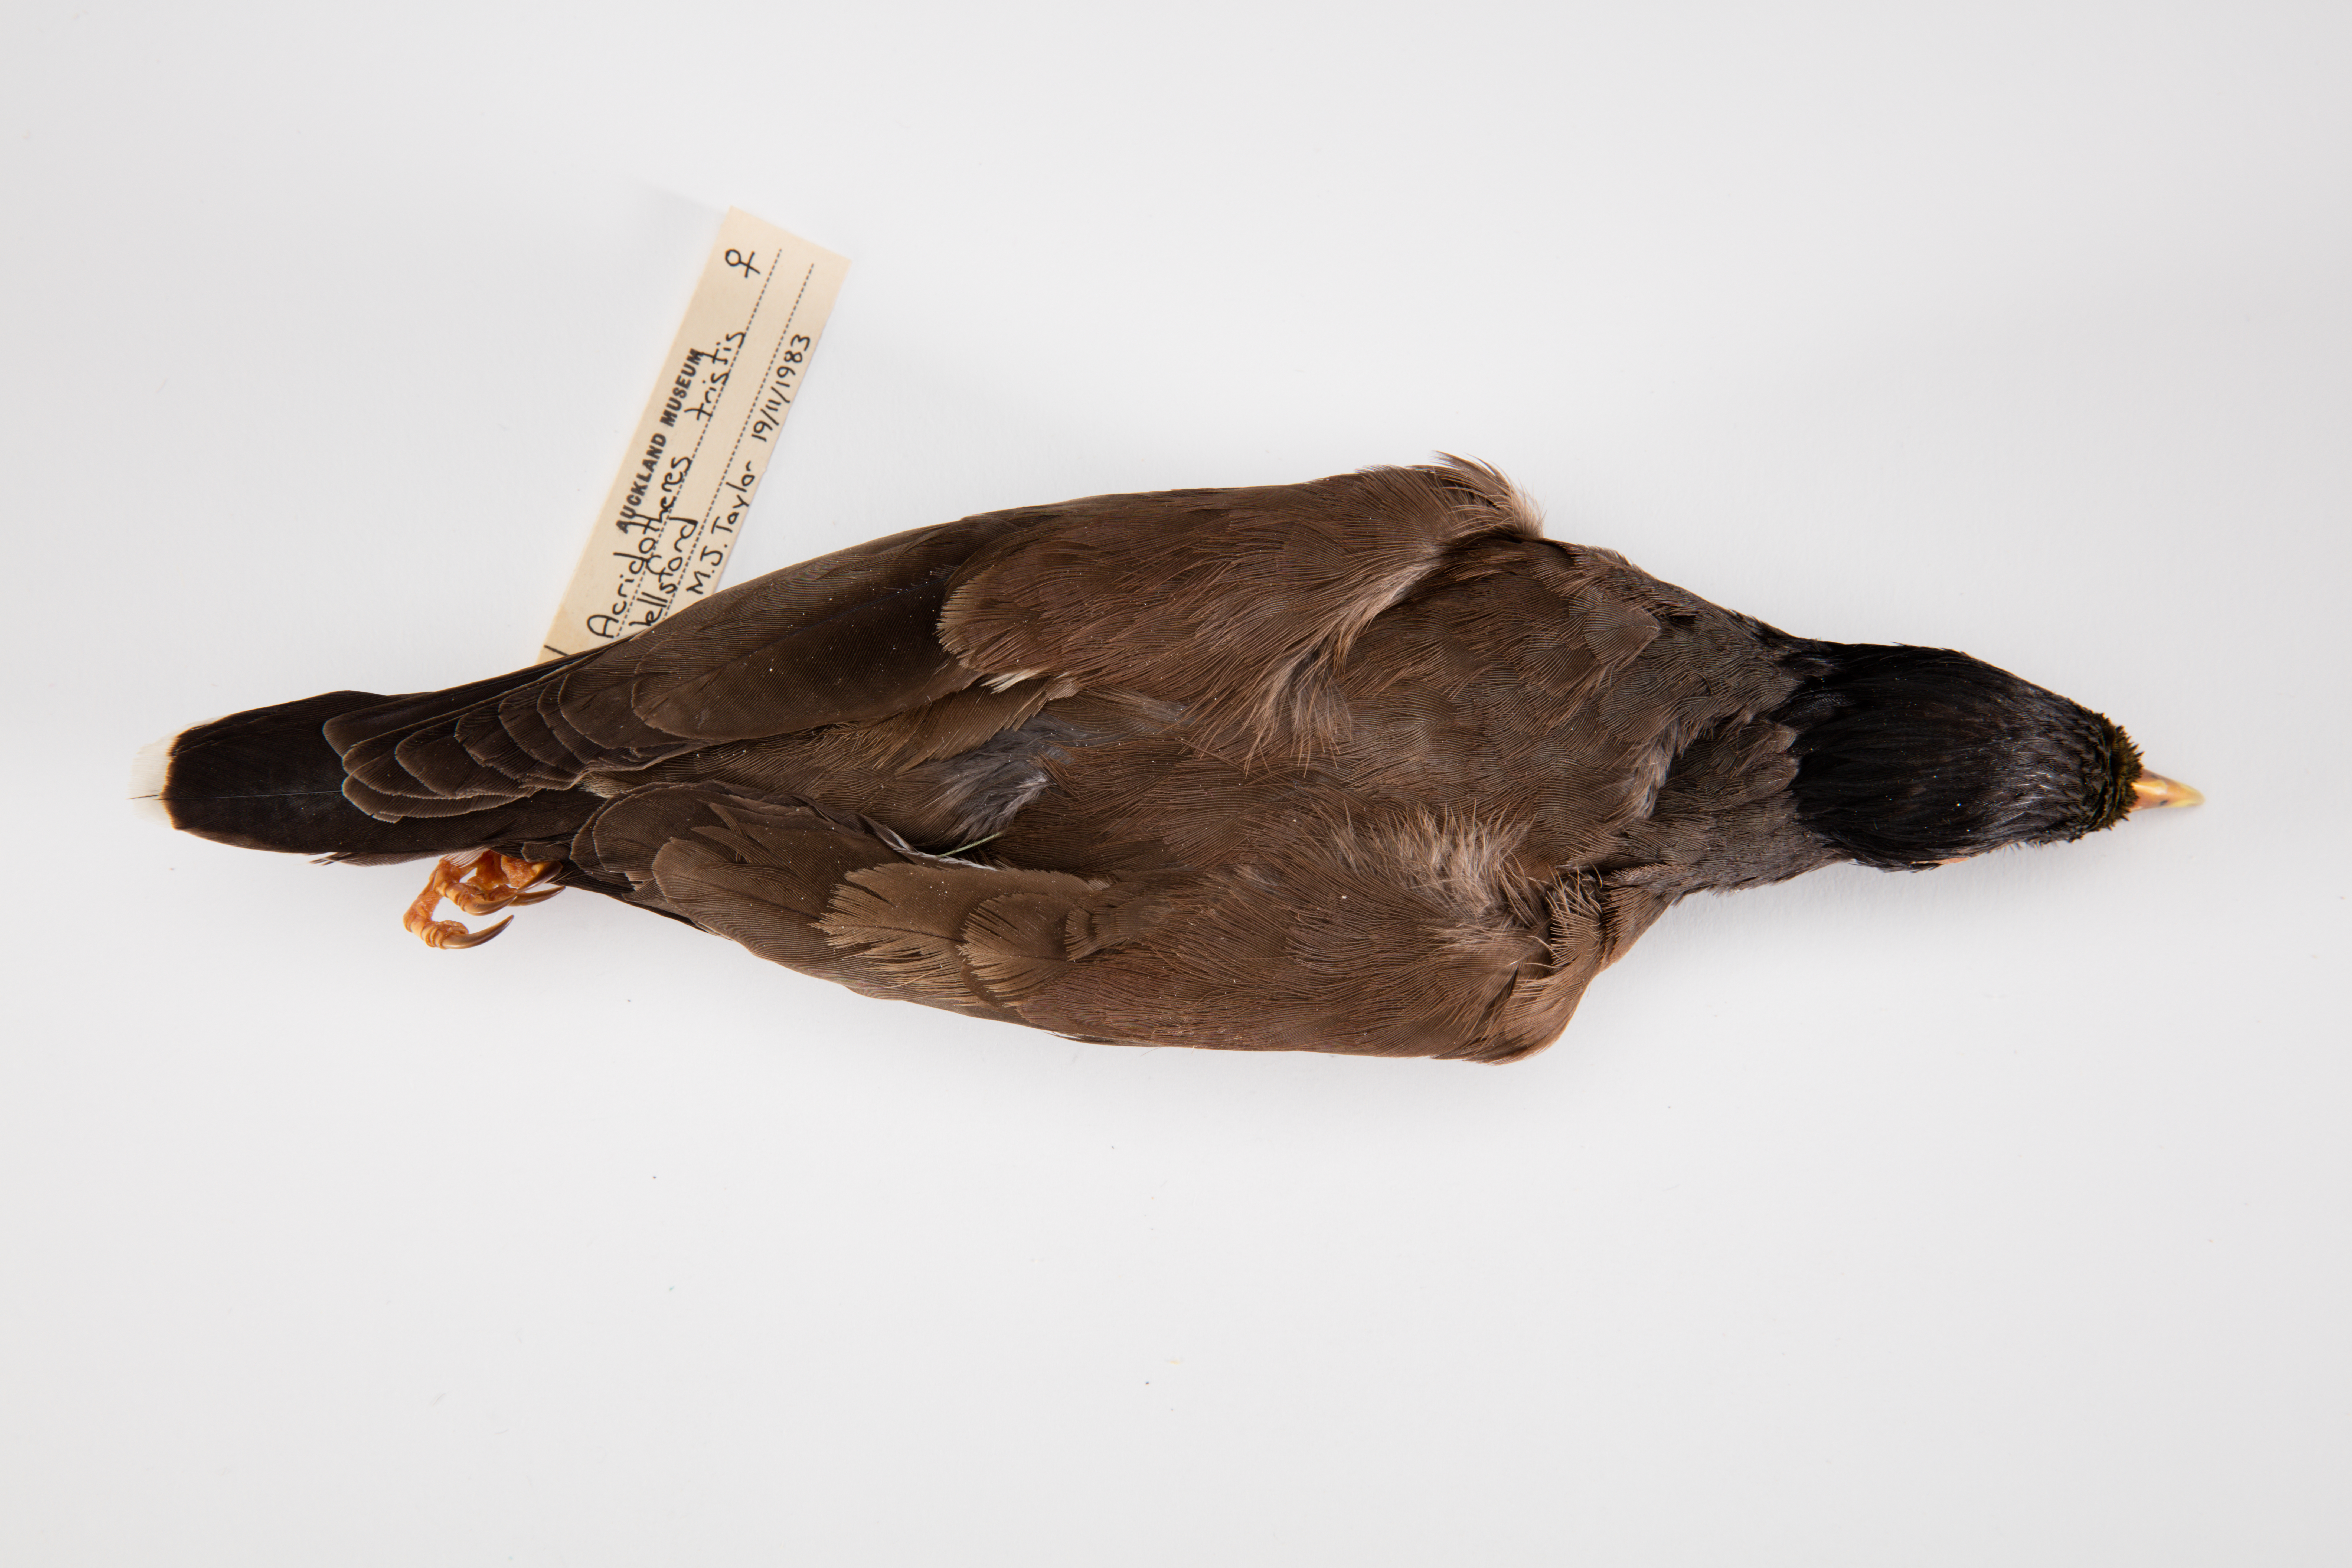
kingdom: Animalia
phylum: Chordata
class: Aves
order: Passeriformes
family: Sturnidae
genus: Acridotheres
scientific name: Acridotheres tristis
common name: Common myna
